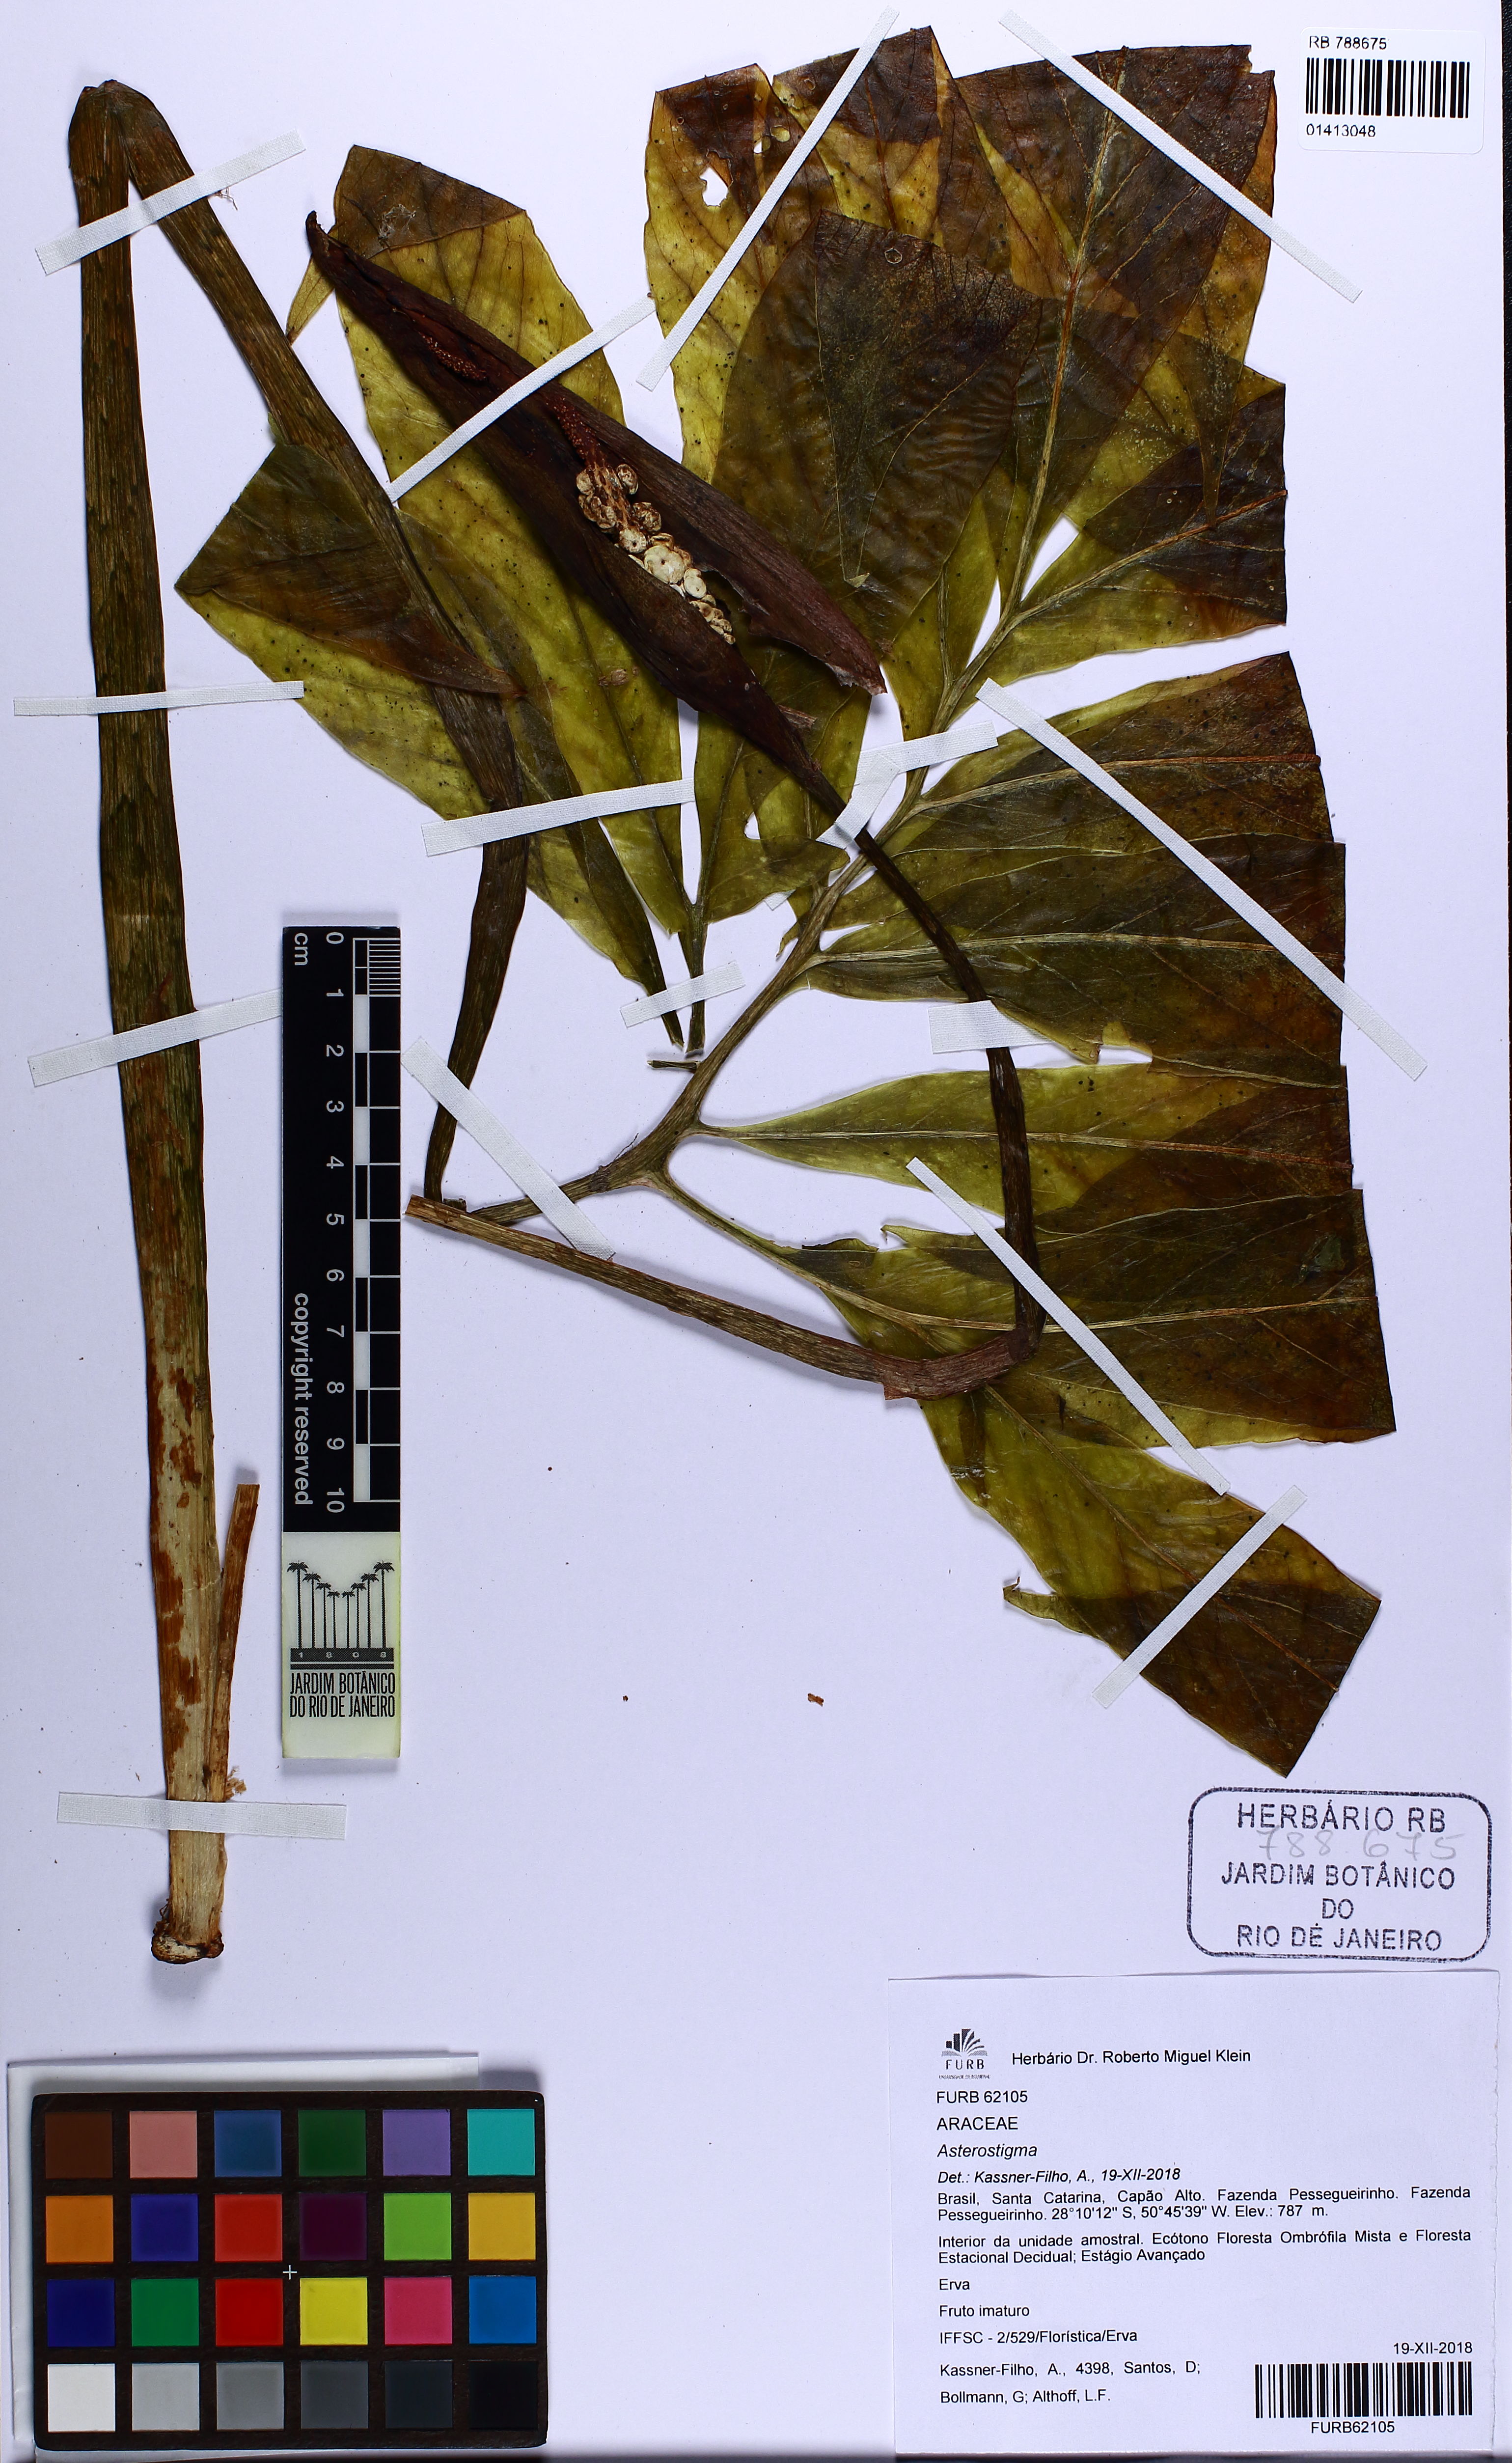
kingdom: Plantae
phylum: Tracheophyta
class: Liliopsida
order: Alismatales
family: Araceae
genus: Asterostigma
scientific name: Asterostigma
